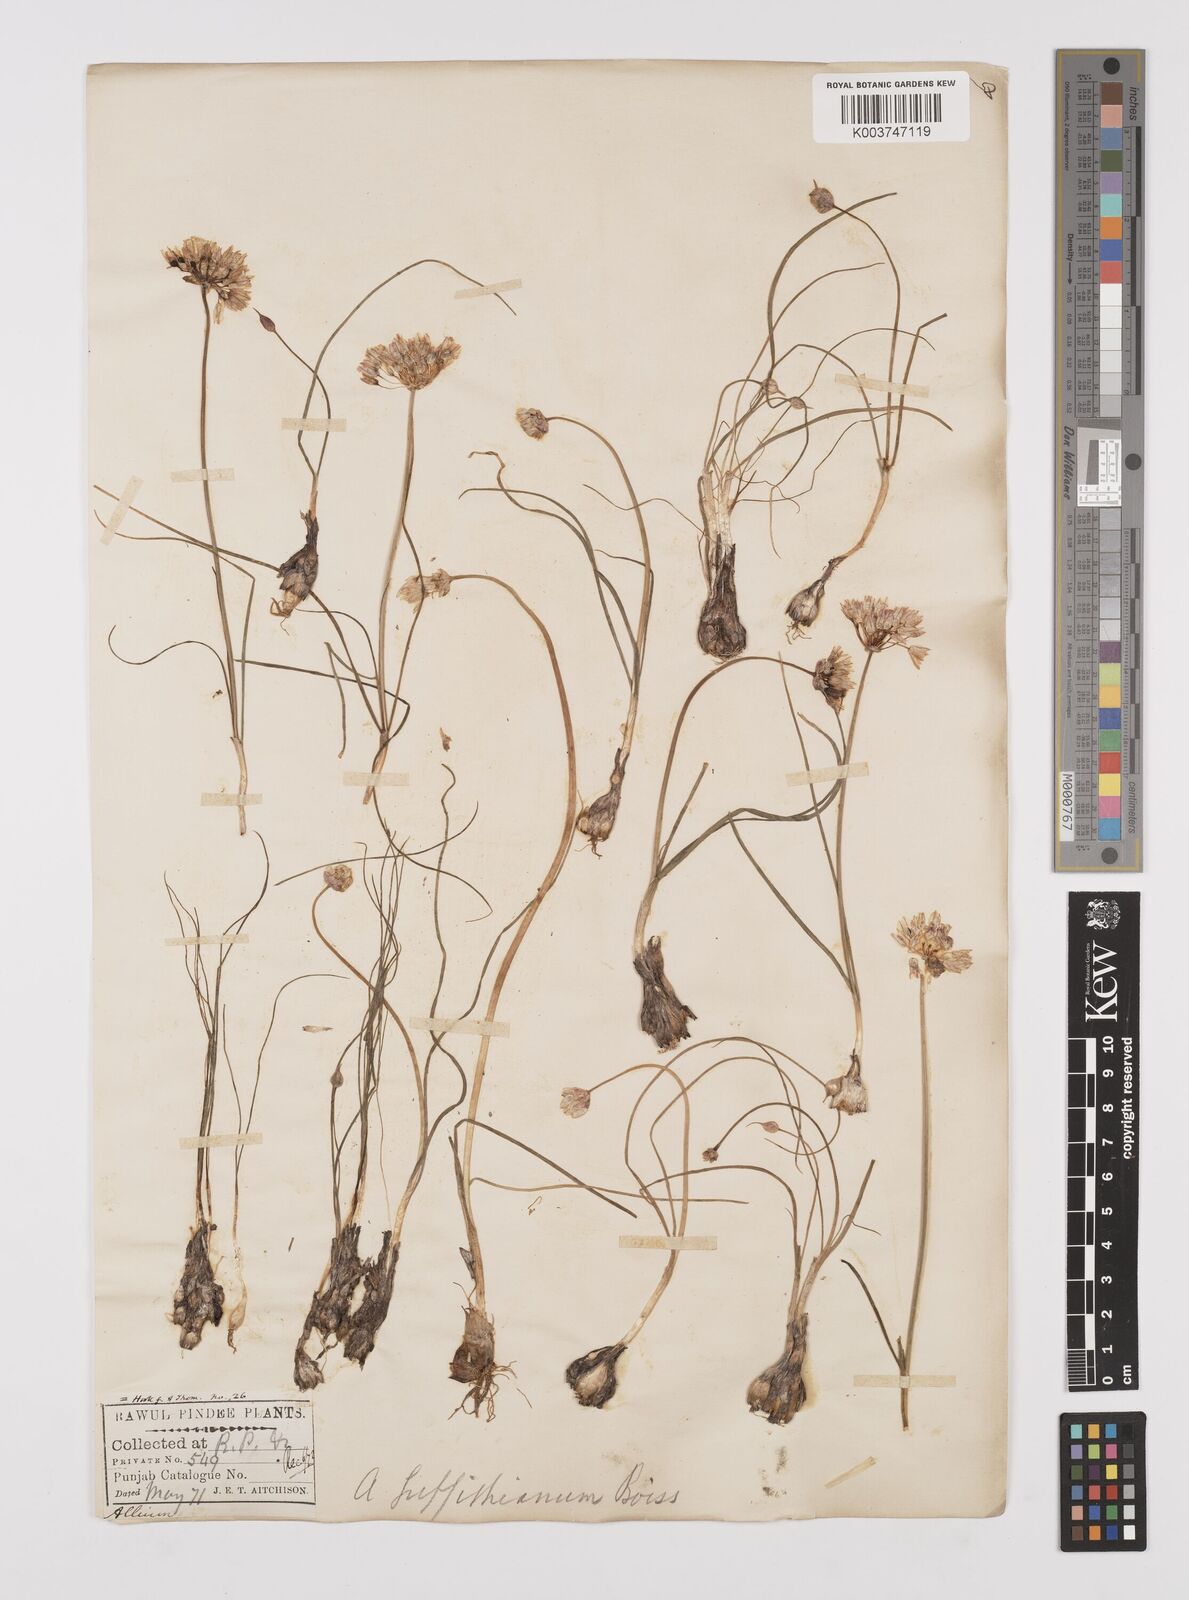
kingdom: Plantae
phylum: Tracheophyta
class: Liliopsida
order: Asparagales
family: Amaryllidaceae
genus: Allium
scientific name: Allium griffithianum
